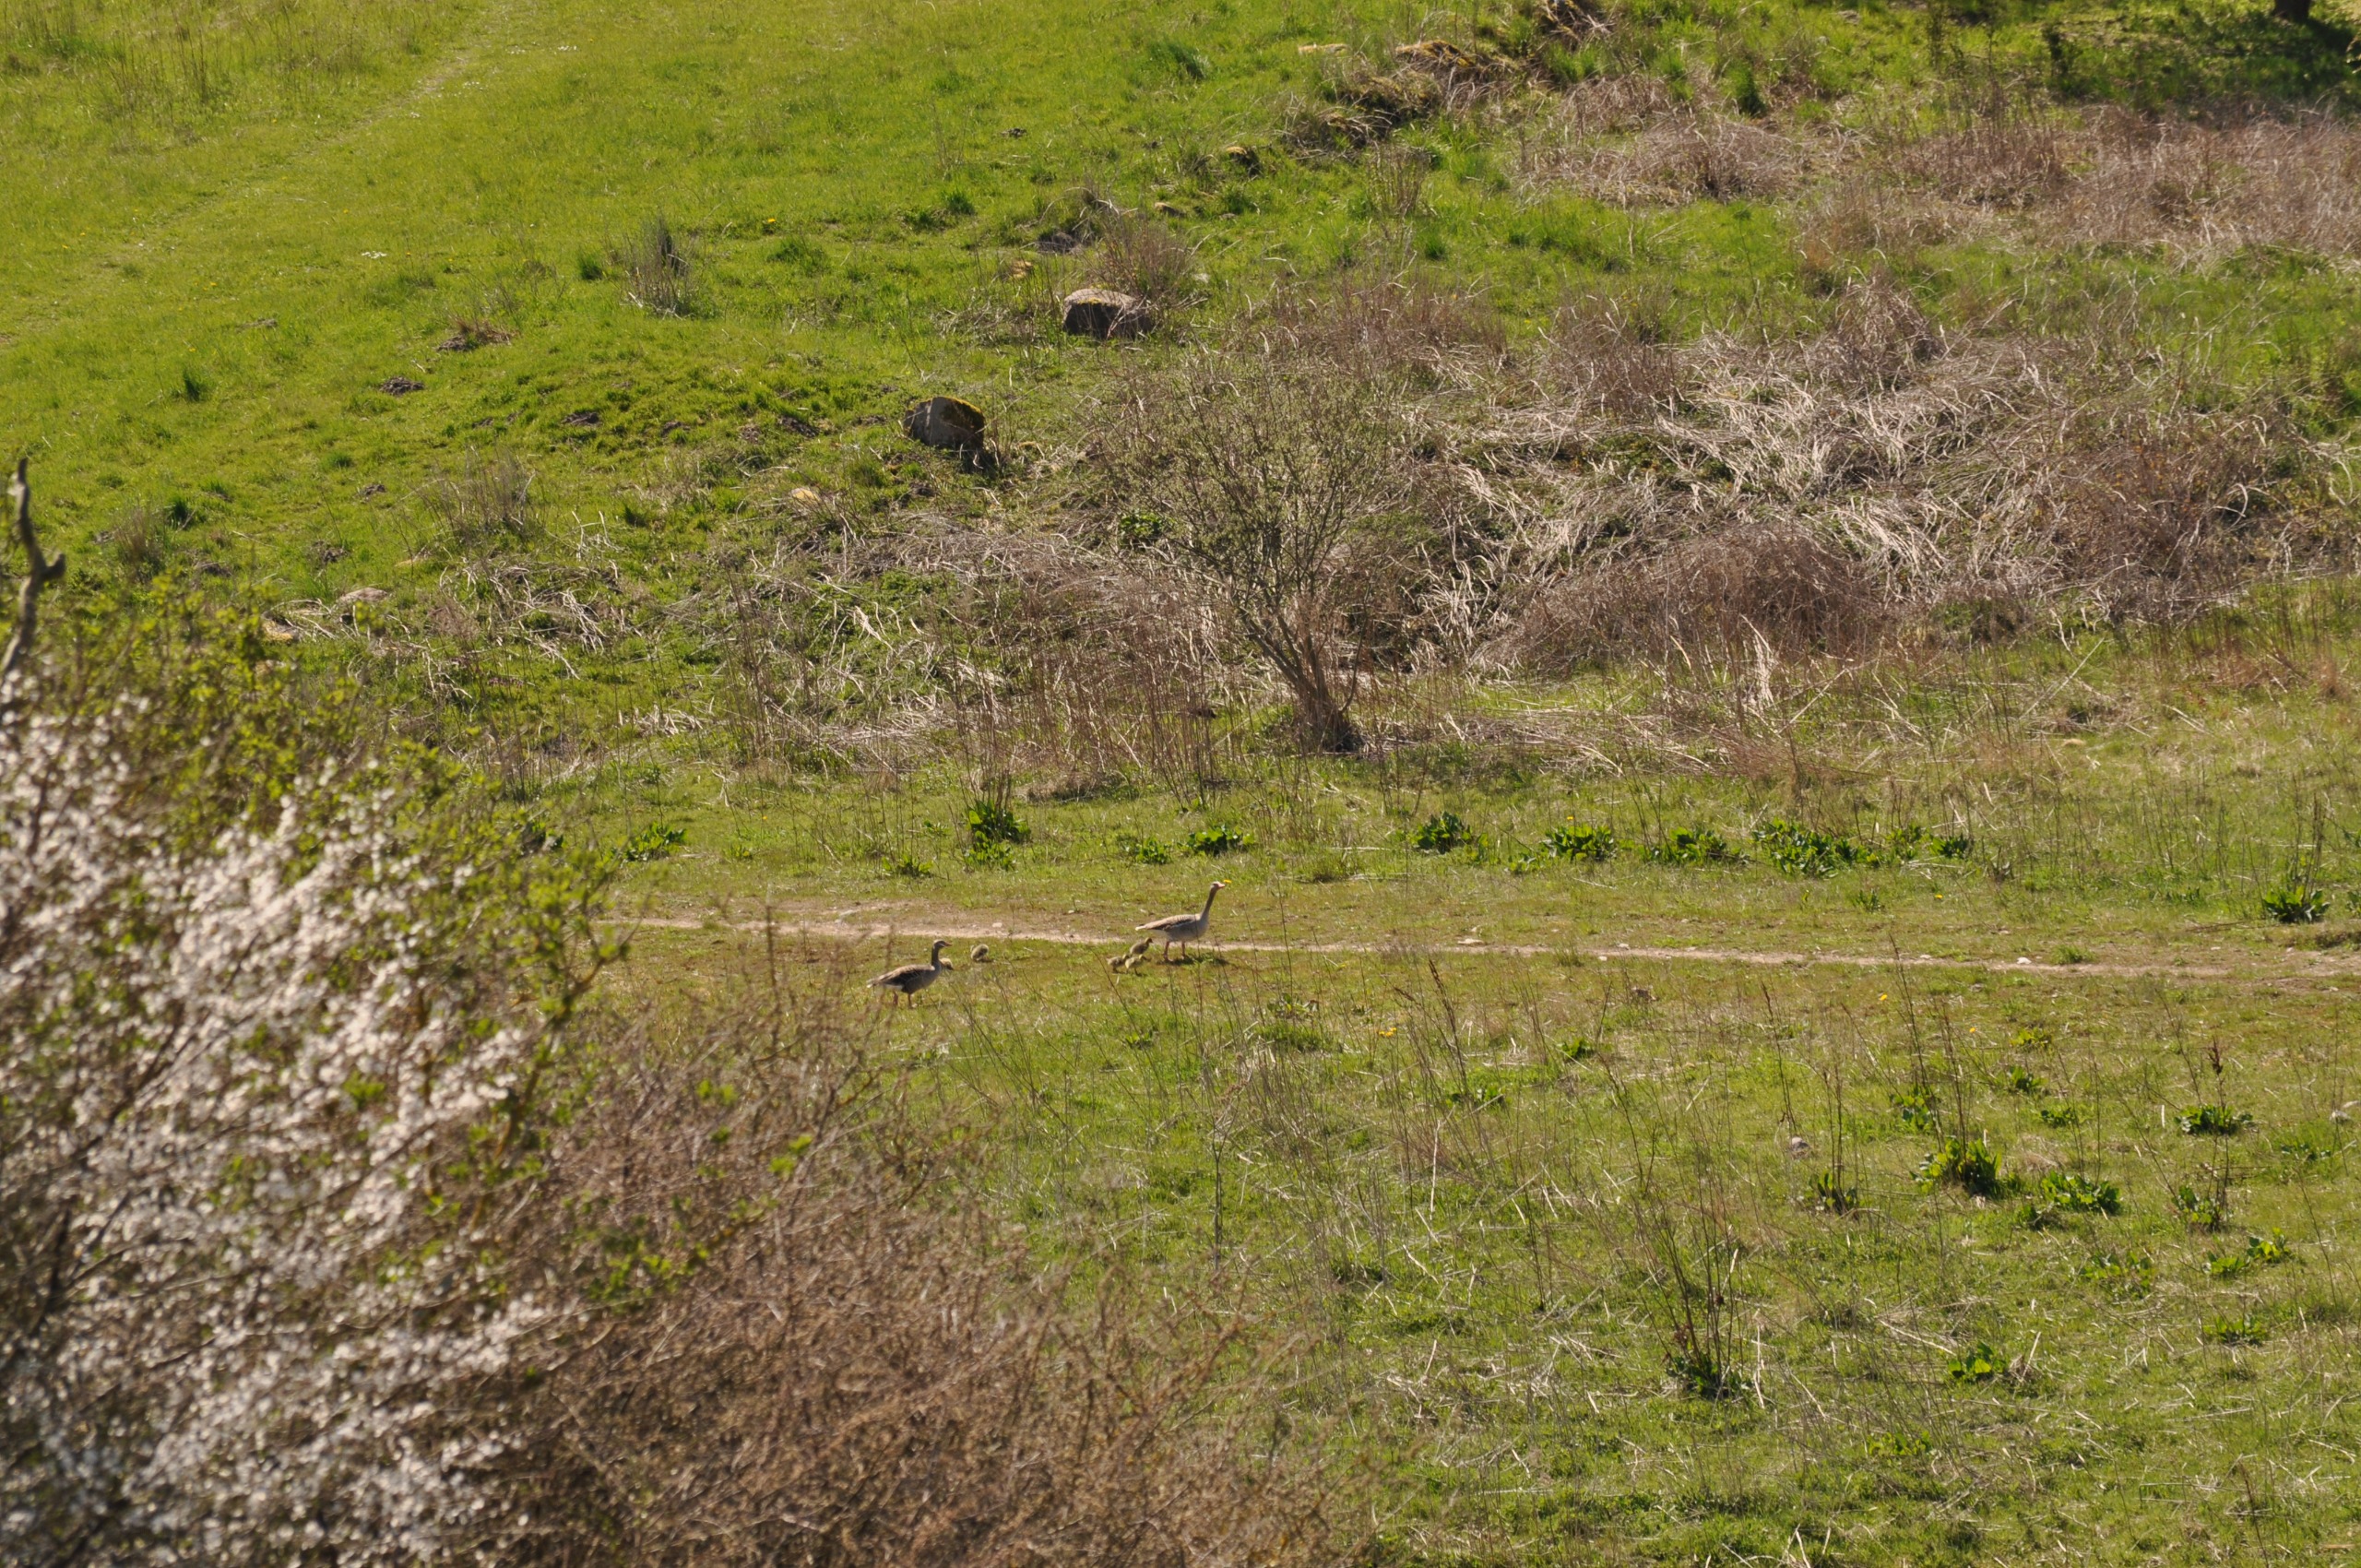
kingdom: Animalia
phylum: Chordata
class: Aves
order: Anseriformes
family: Anatidae
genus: Anser
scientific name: Anser anser
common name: Grågås
